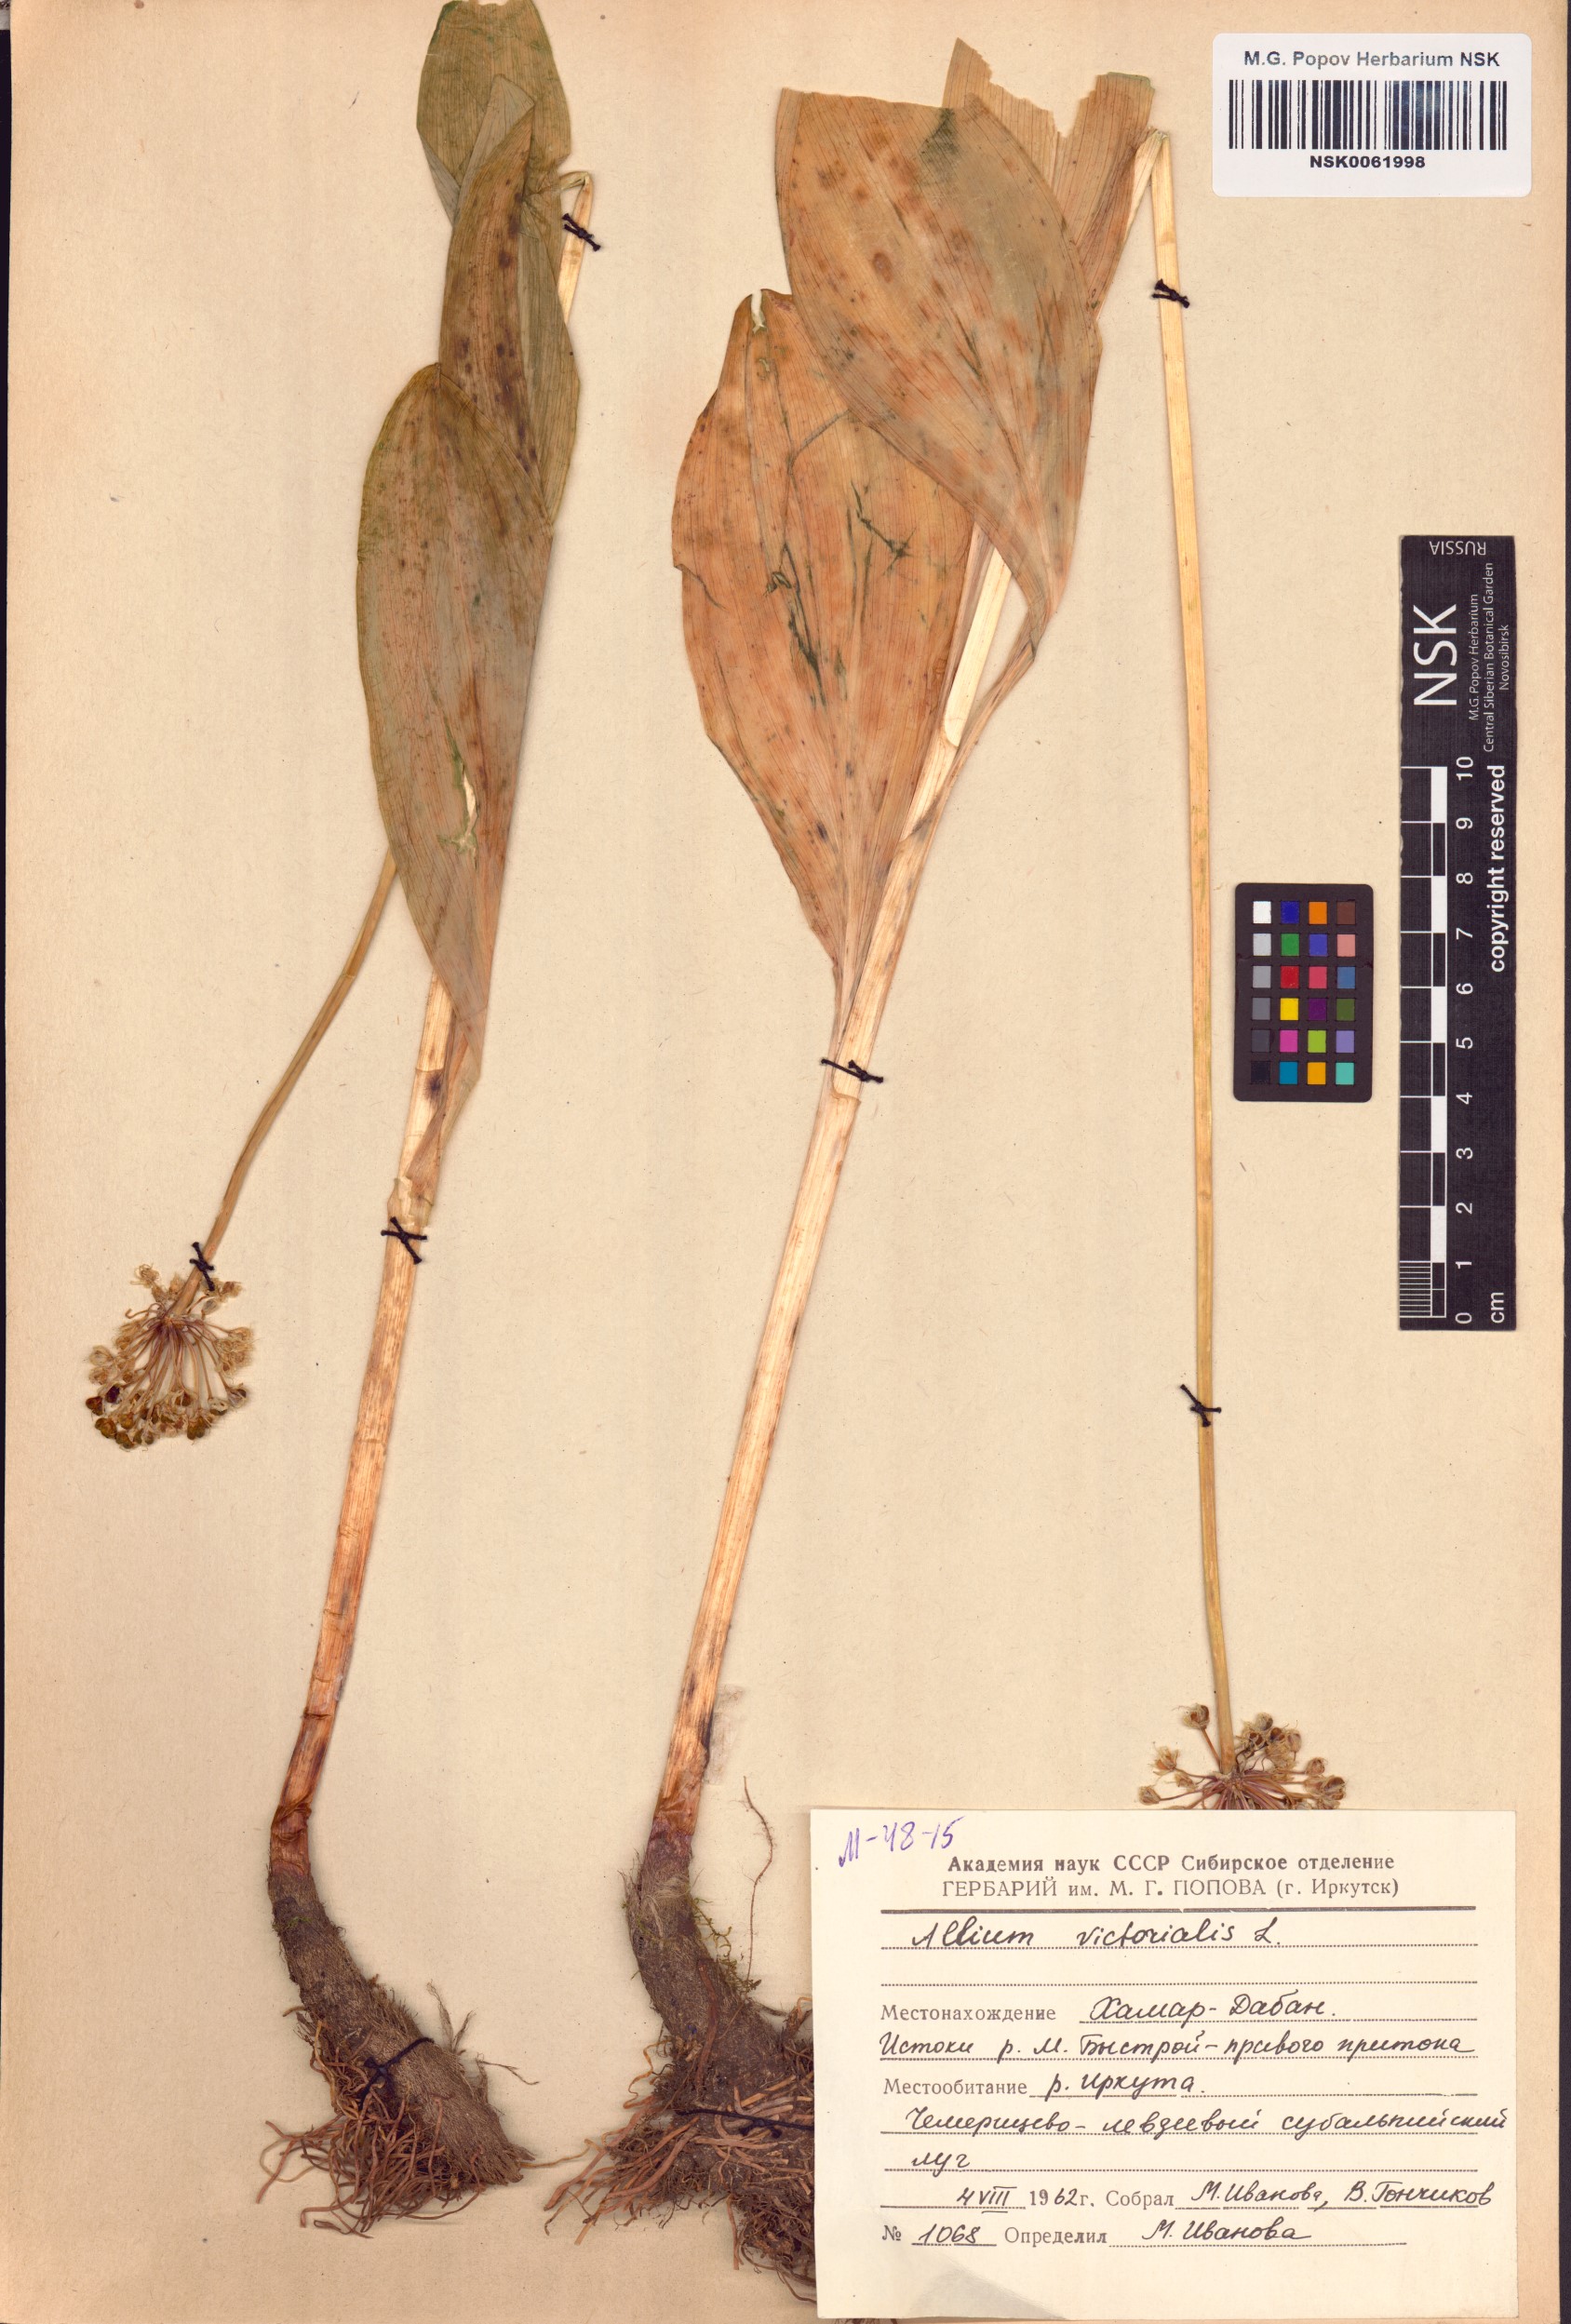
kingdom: Plantae
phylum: Tracheophyta
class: Liliopsida
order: Asparagales
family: Amaryllidaceae
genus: Allium
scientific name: Allium victorialis
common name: Alpine leek
